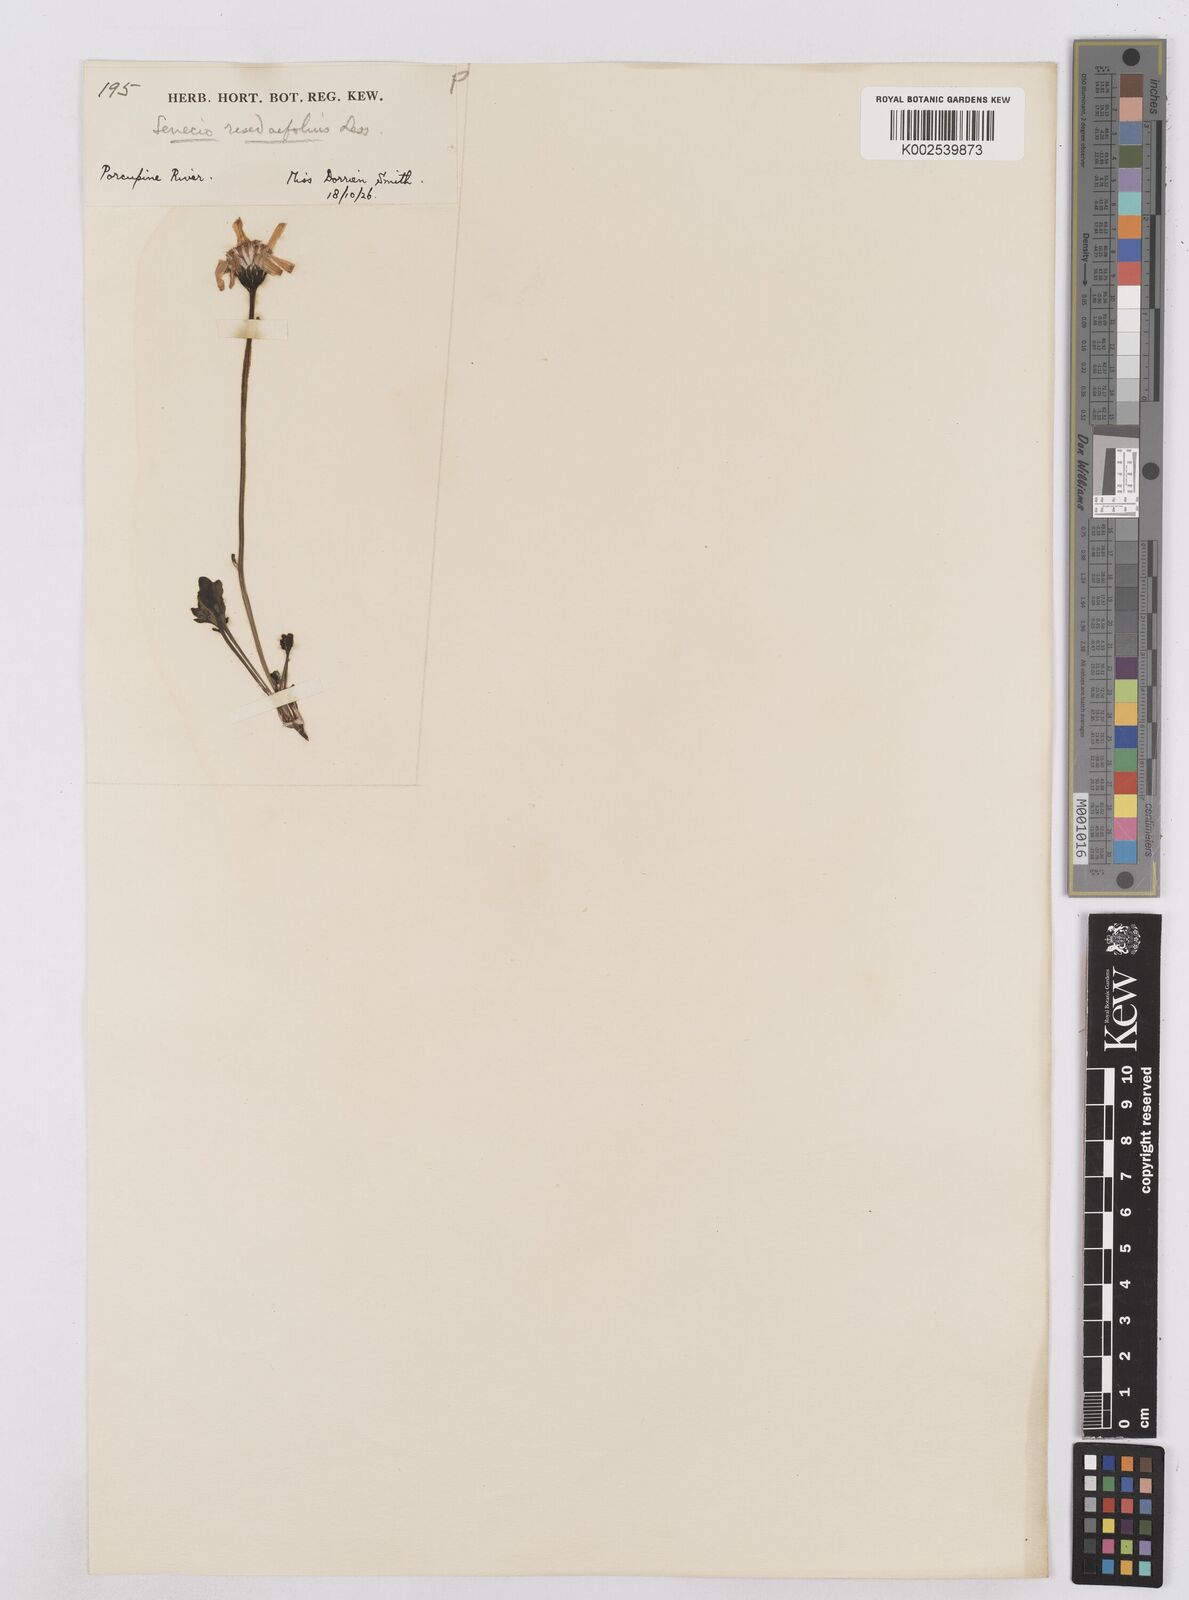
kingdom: Plantae
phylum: Tracheophyta
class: Magnoliopsida
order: Asterales
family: Asteraceae
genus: Packera
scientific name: Packera cymbalaria
